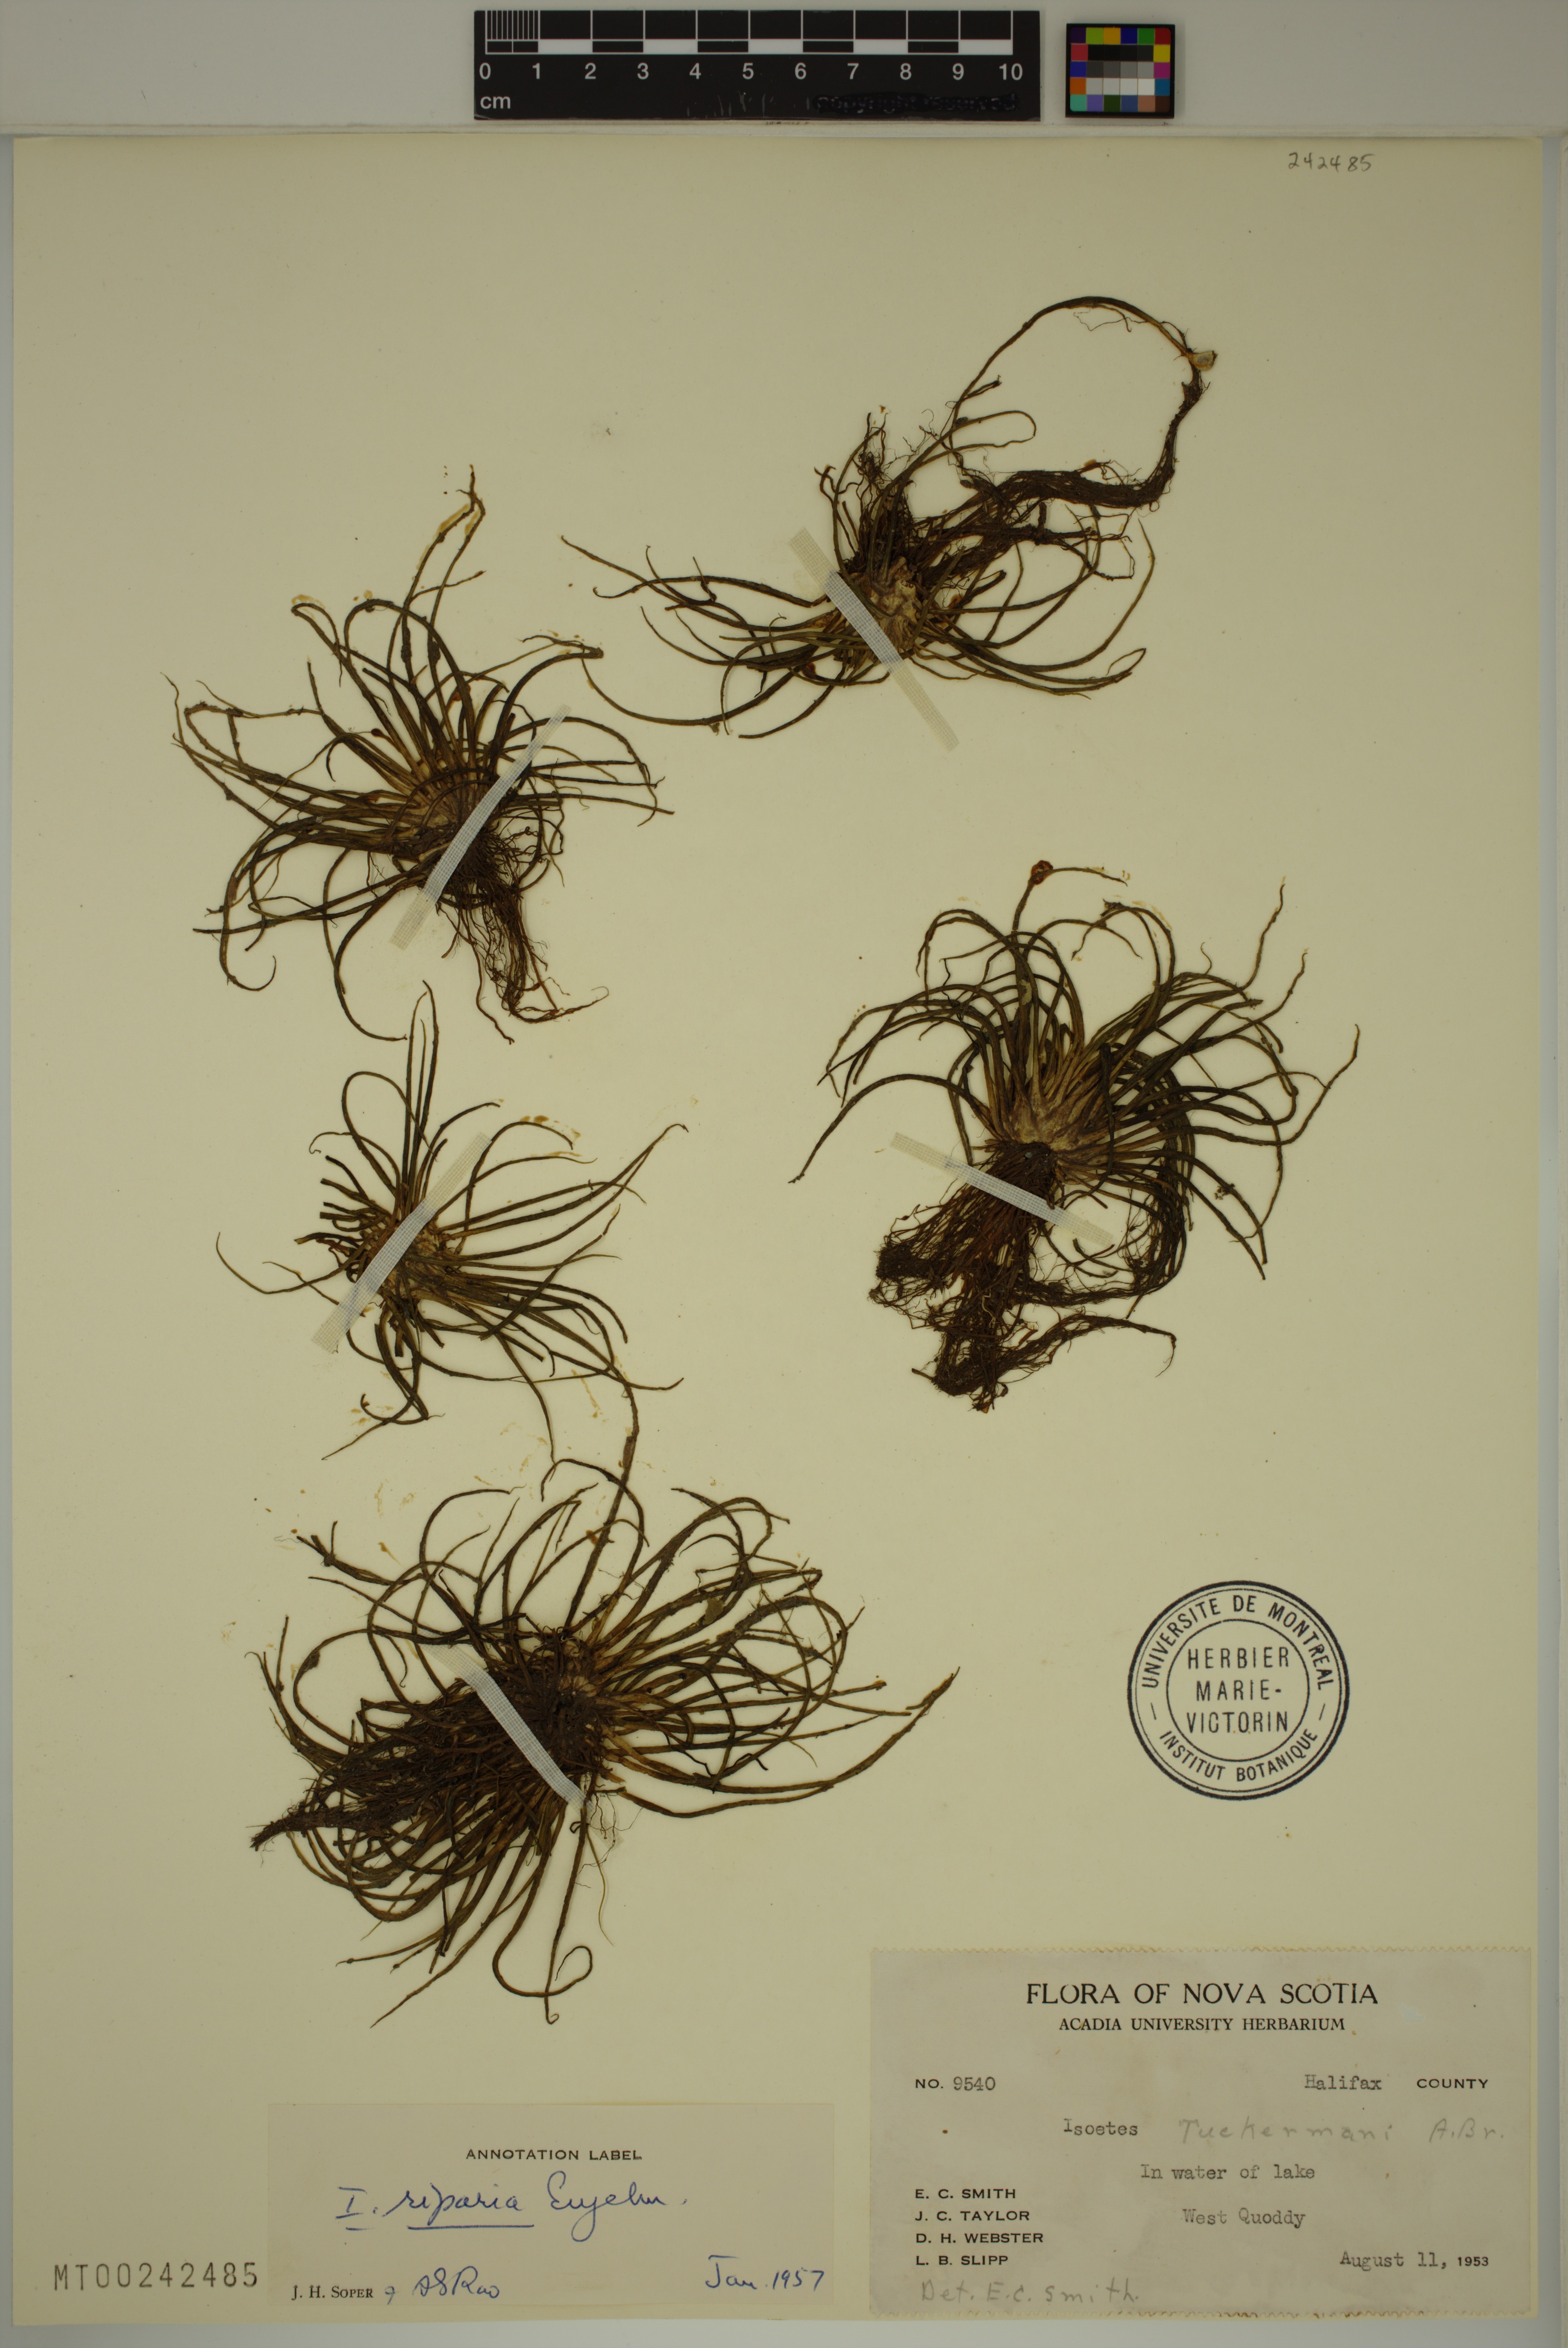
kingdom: Plantae
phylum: Tracheophyta
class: Lycopodiopsida
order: Isoetales
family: Isoetaceae
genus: Isoetes
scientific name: Isoetes tuckermanii
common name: Tuckerman's quillwort
